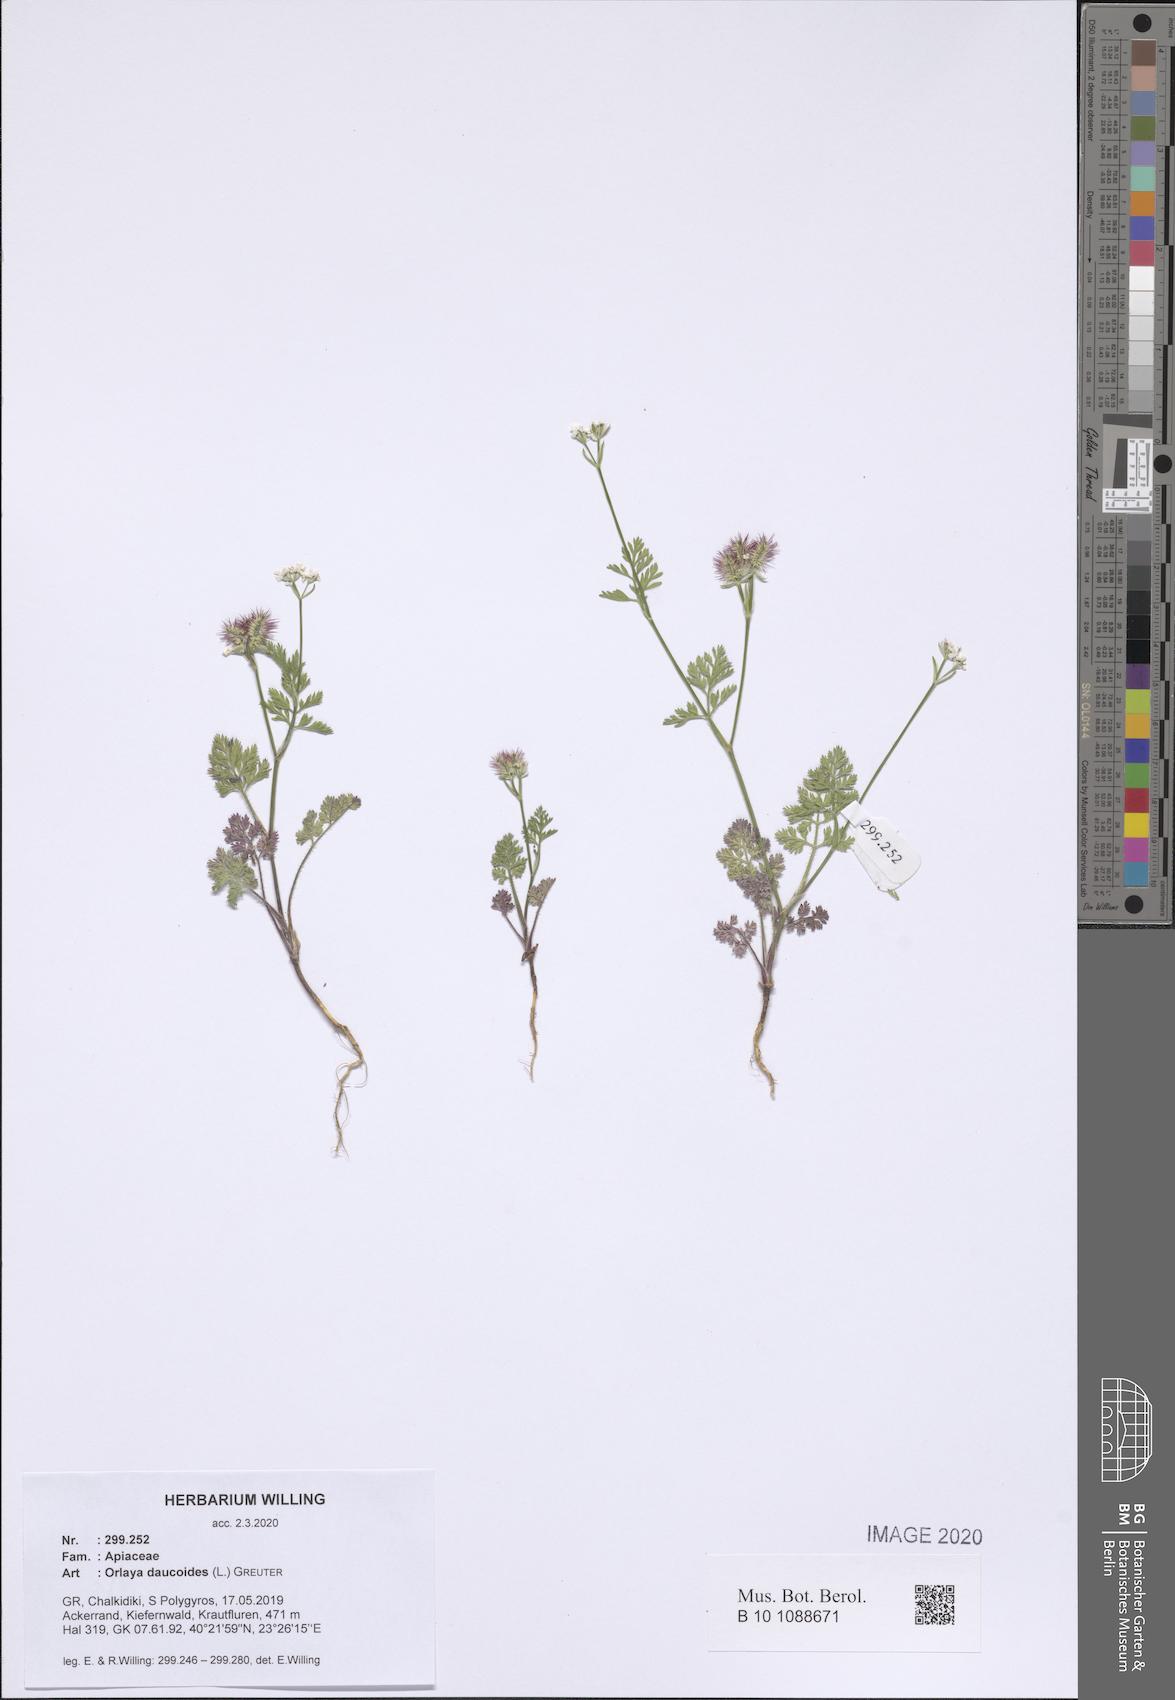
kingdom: Plantae
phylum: Tracheophyta
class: Magnoliopsida
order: Apiales
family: Apiaceae
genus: Orlaya
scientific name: Orlaya daucoides
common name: Flat-fruit orlaya
